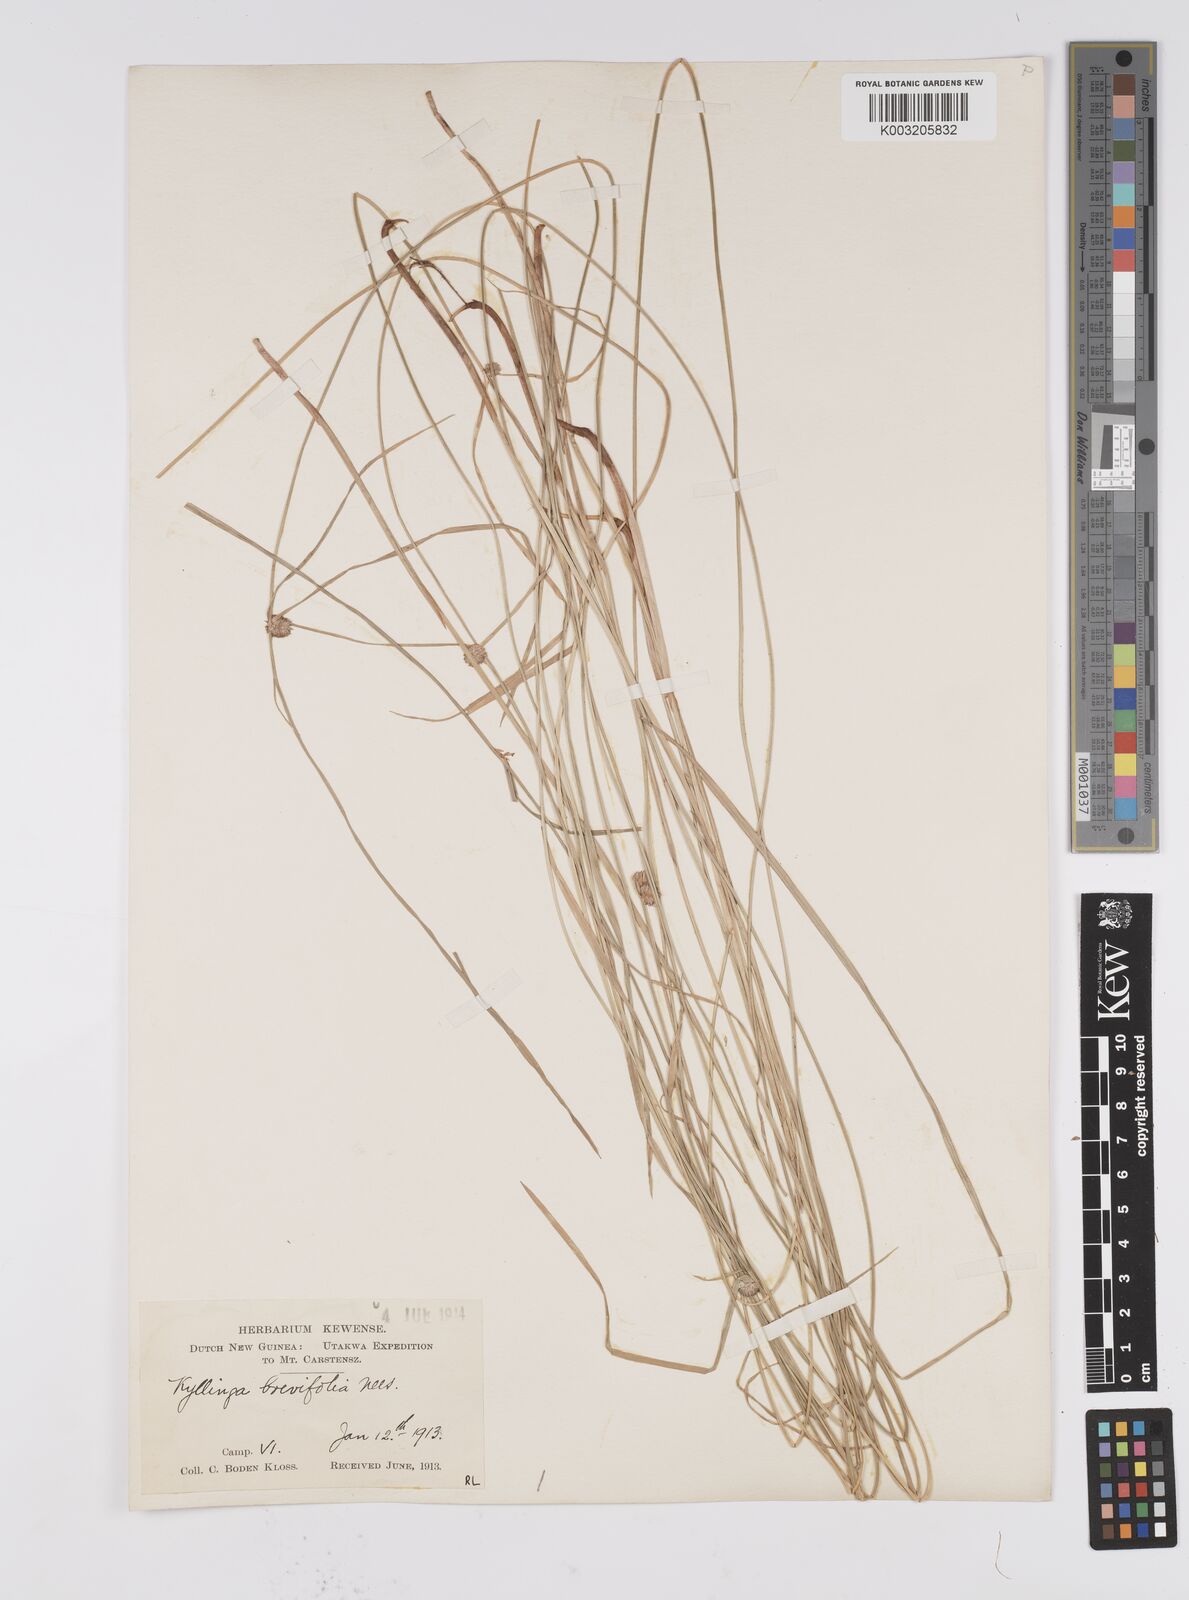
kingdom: Plantae
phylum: Tracheophyta
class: Liliopsida
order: Poales
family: Cyperaceae
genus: Cyperus
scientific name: Cyperus brevifolius
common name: Globe kyllinga
